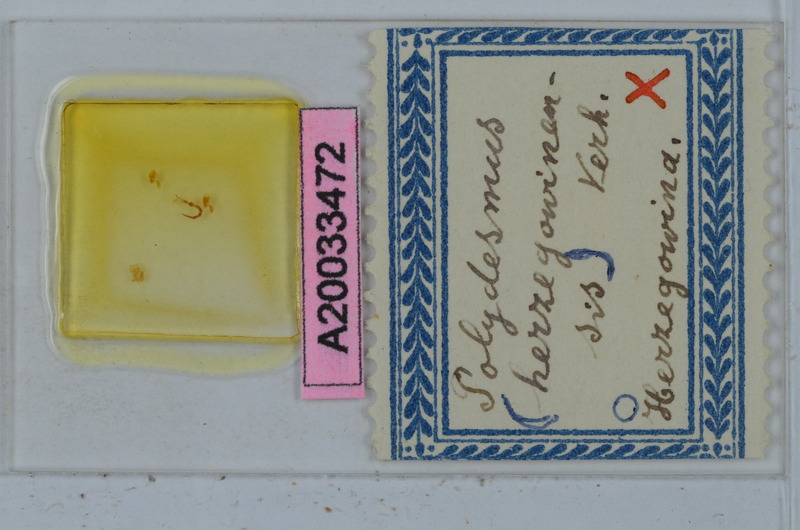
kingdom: Animalia
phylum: Arthropoda
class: Diplopoda
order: Polydesmida
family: Polydesmidae
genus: Polydesmus
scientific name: Polydesmus herzegowinensis
